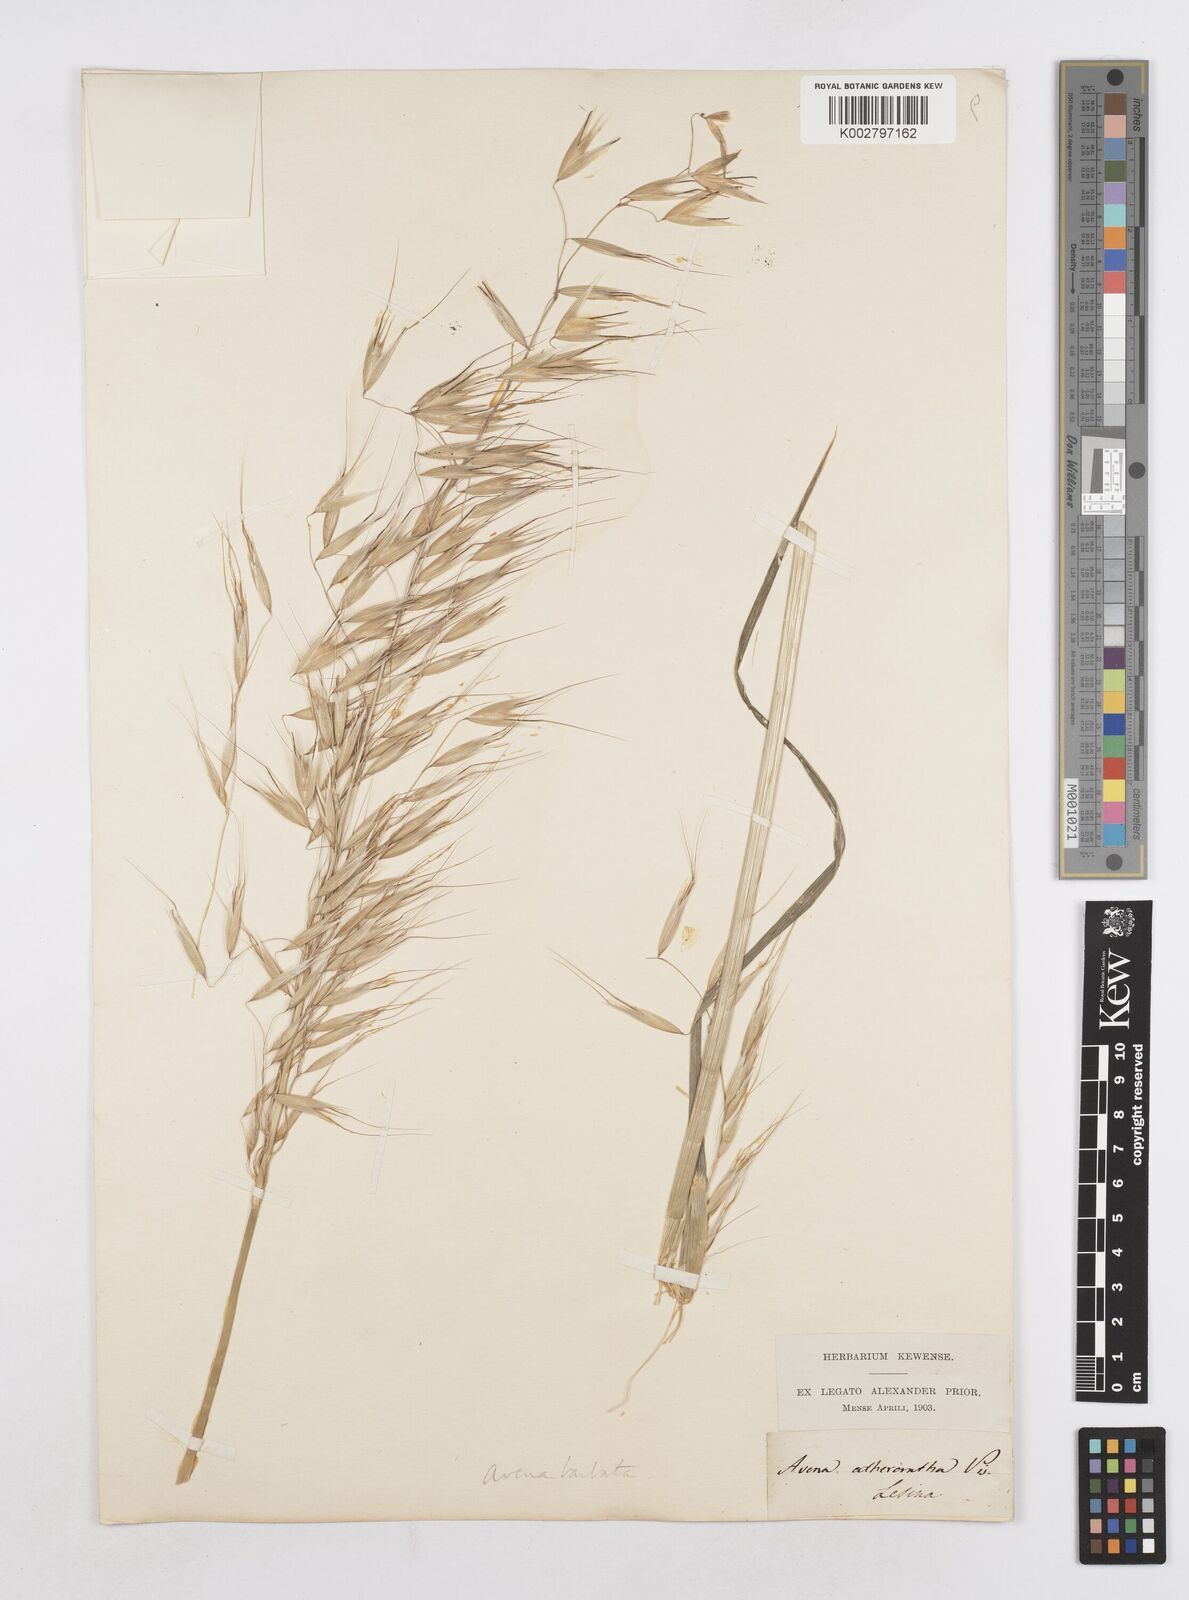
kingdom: Plantae
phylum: Tracheophyta
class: Liliopsida
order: Poales
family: Poaceae
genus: Avena
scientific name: Avena
